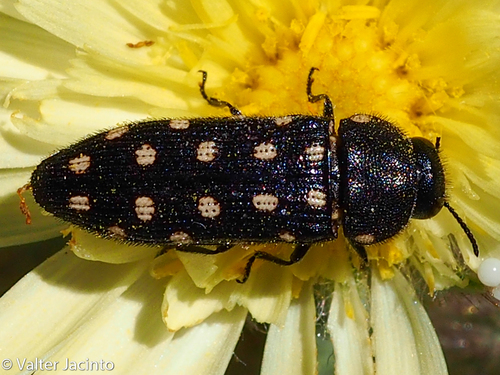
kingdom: Animalia
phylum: Arthropoda
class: Insecta
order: Coleoptera
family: Buprestidae
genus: Acmaeodera
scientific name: Acmaeodera degener
